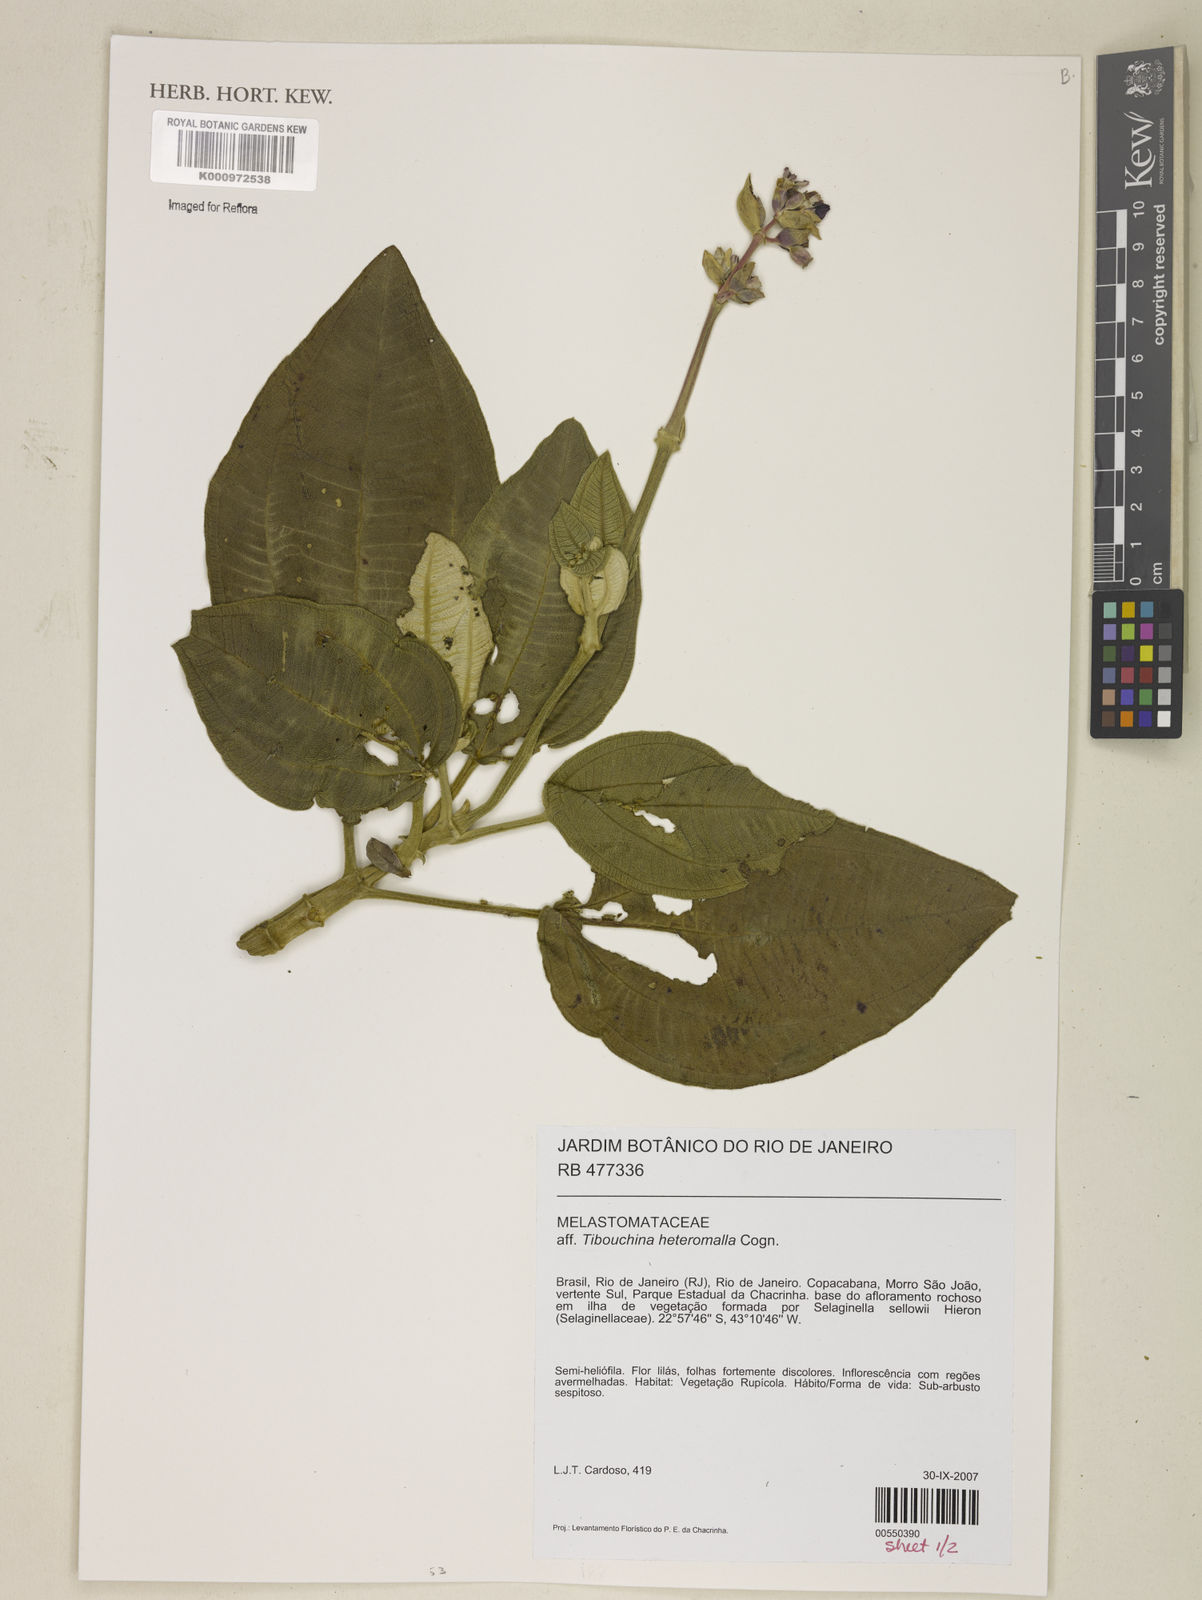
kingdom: Plantae
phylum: Tracheophyta
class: Magnoliopsida
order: Myrtales
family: Melastomataceae
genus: Pleroma
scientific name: Pleroma heteromallum
